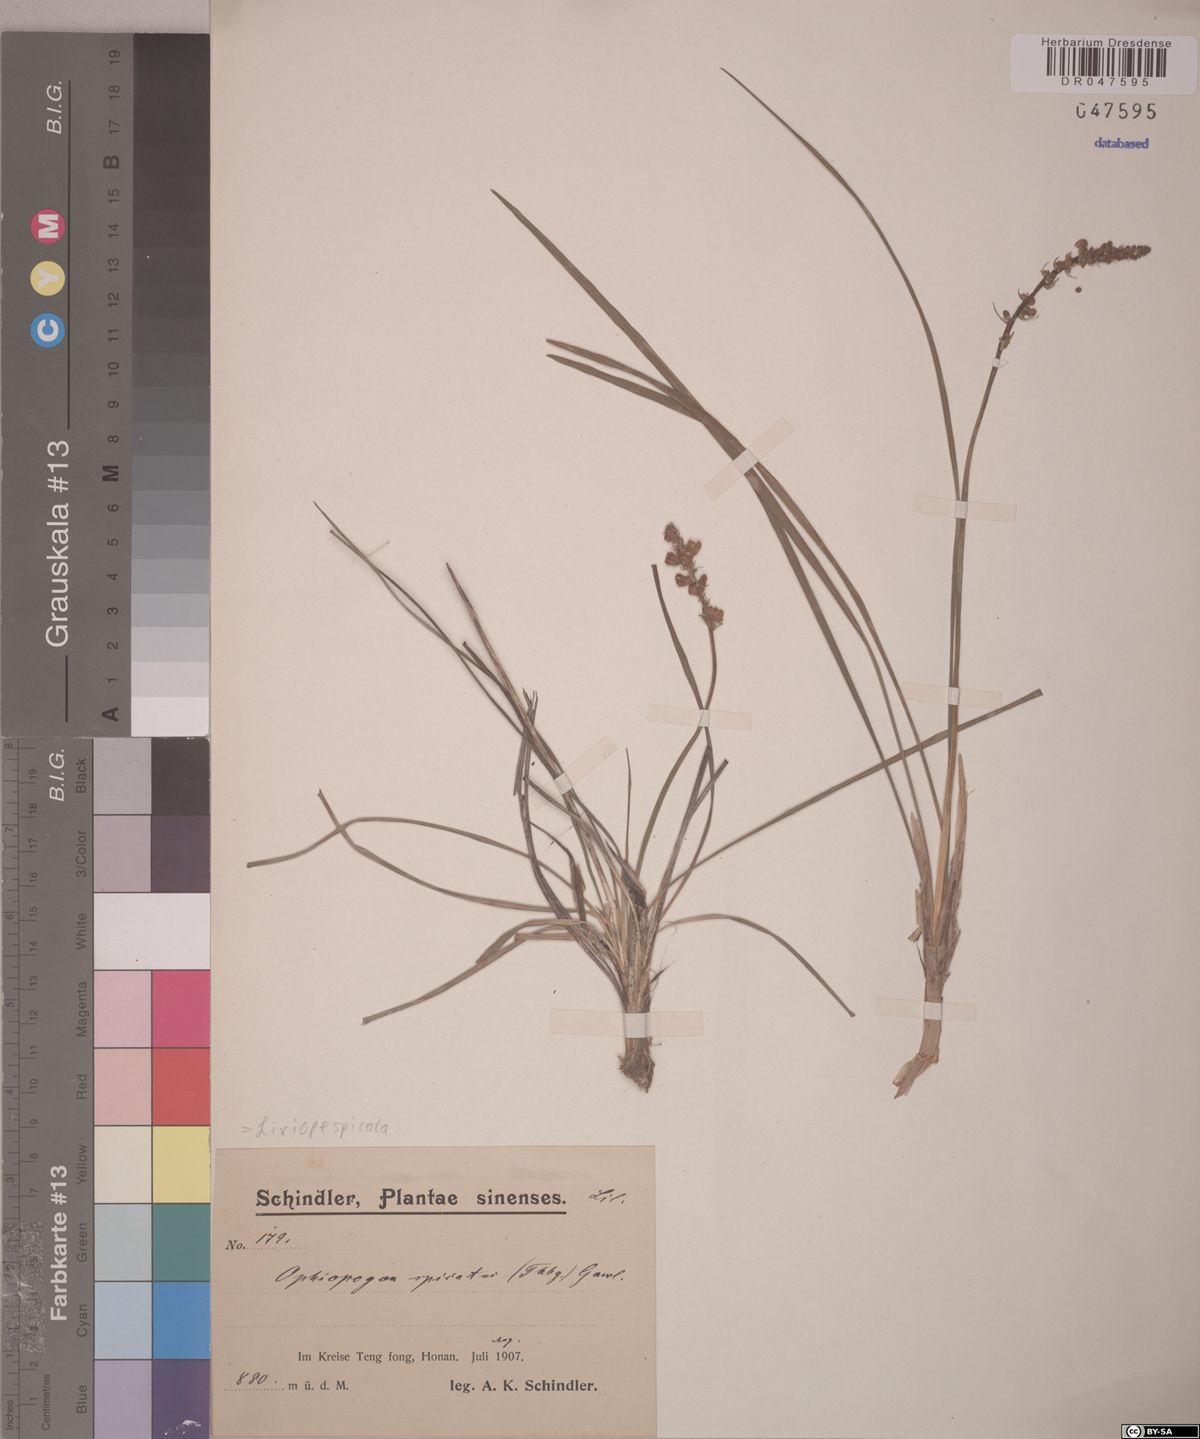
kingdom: Plantae
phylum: Tracheophyta
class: Liliopsida
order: Asparagales
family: Asparagaceae
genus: Liriope
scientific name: Liriope spicata
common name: Creeping liriope
